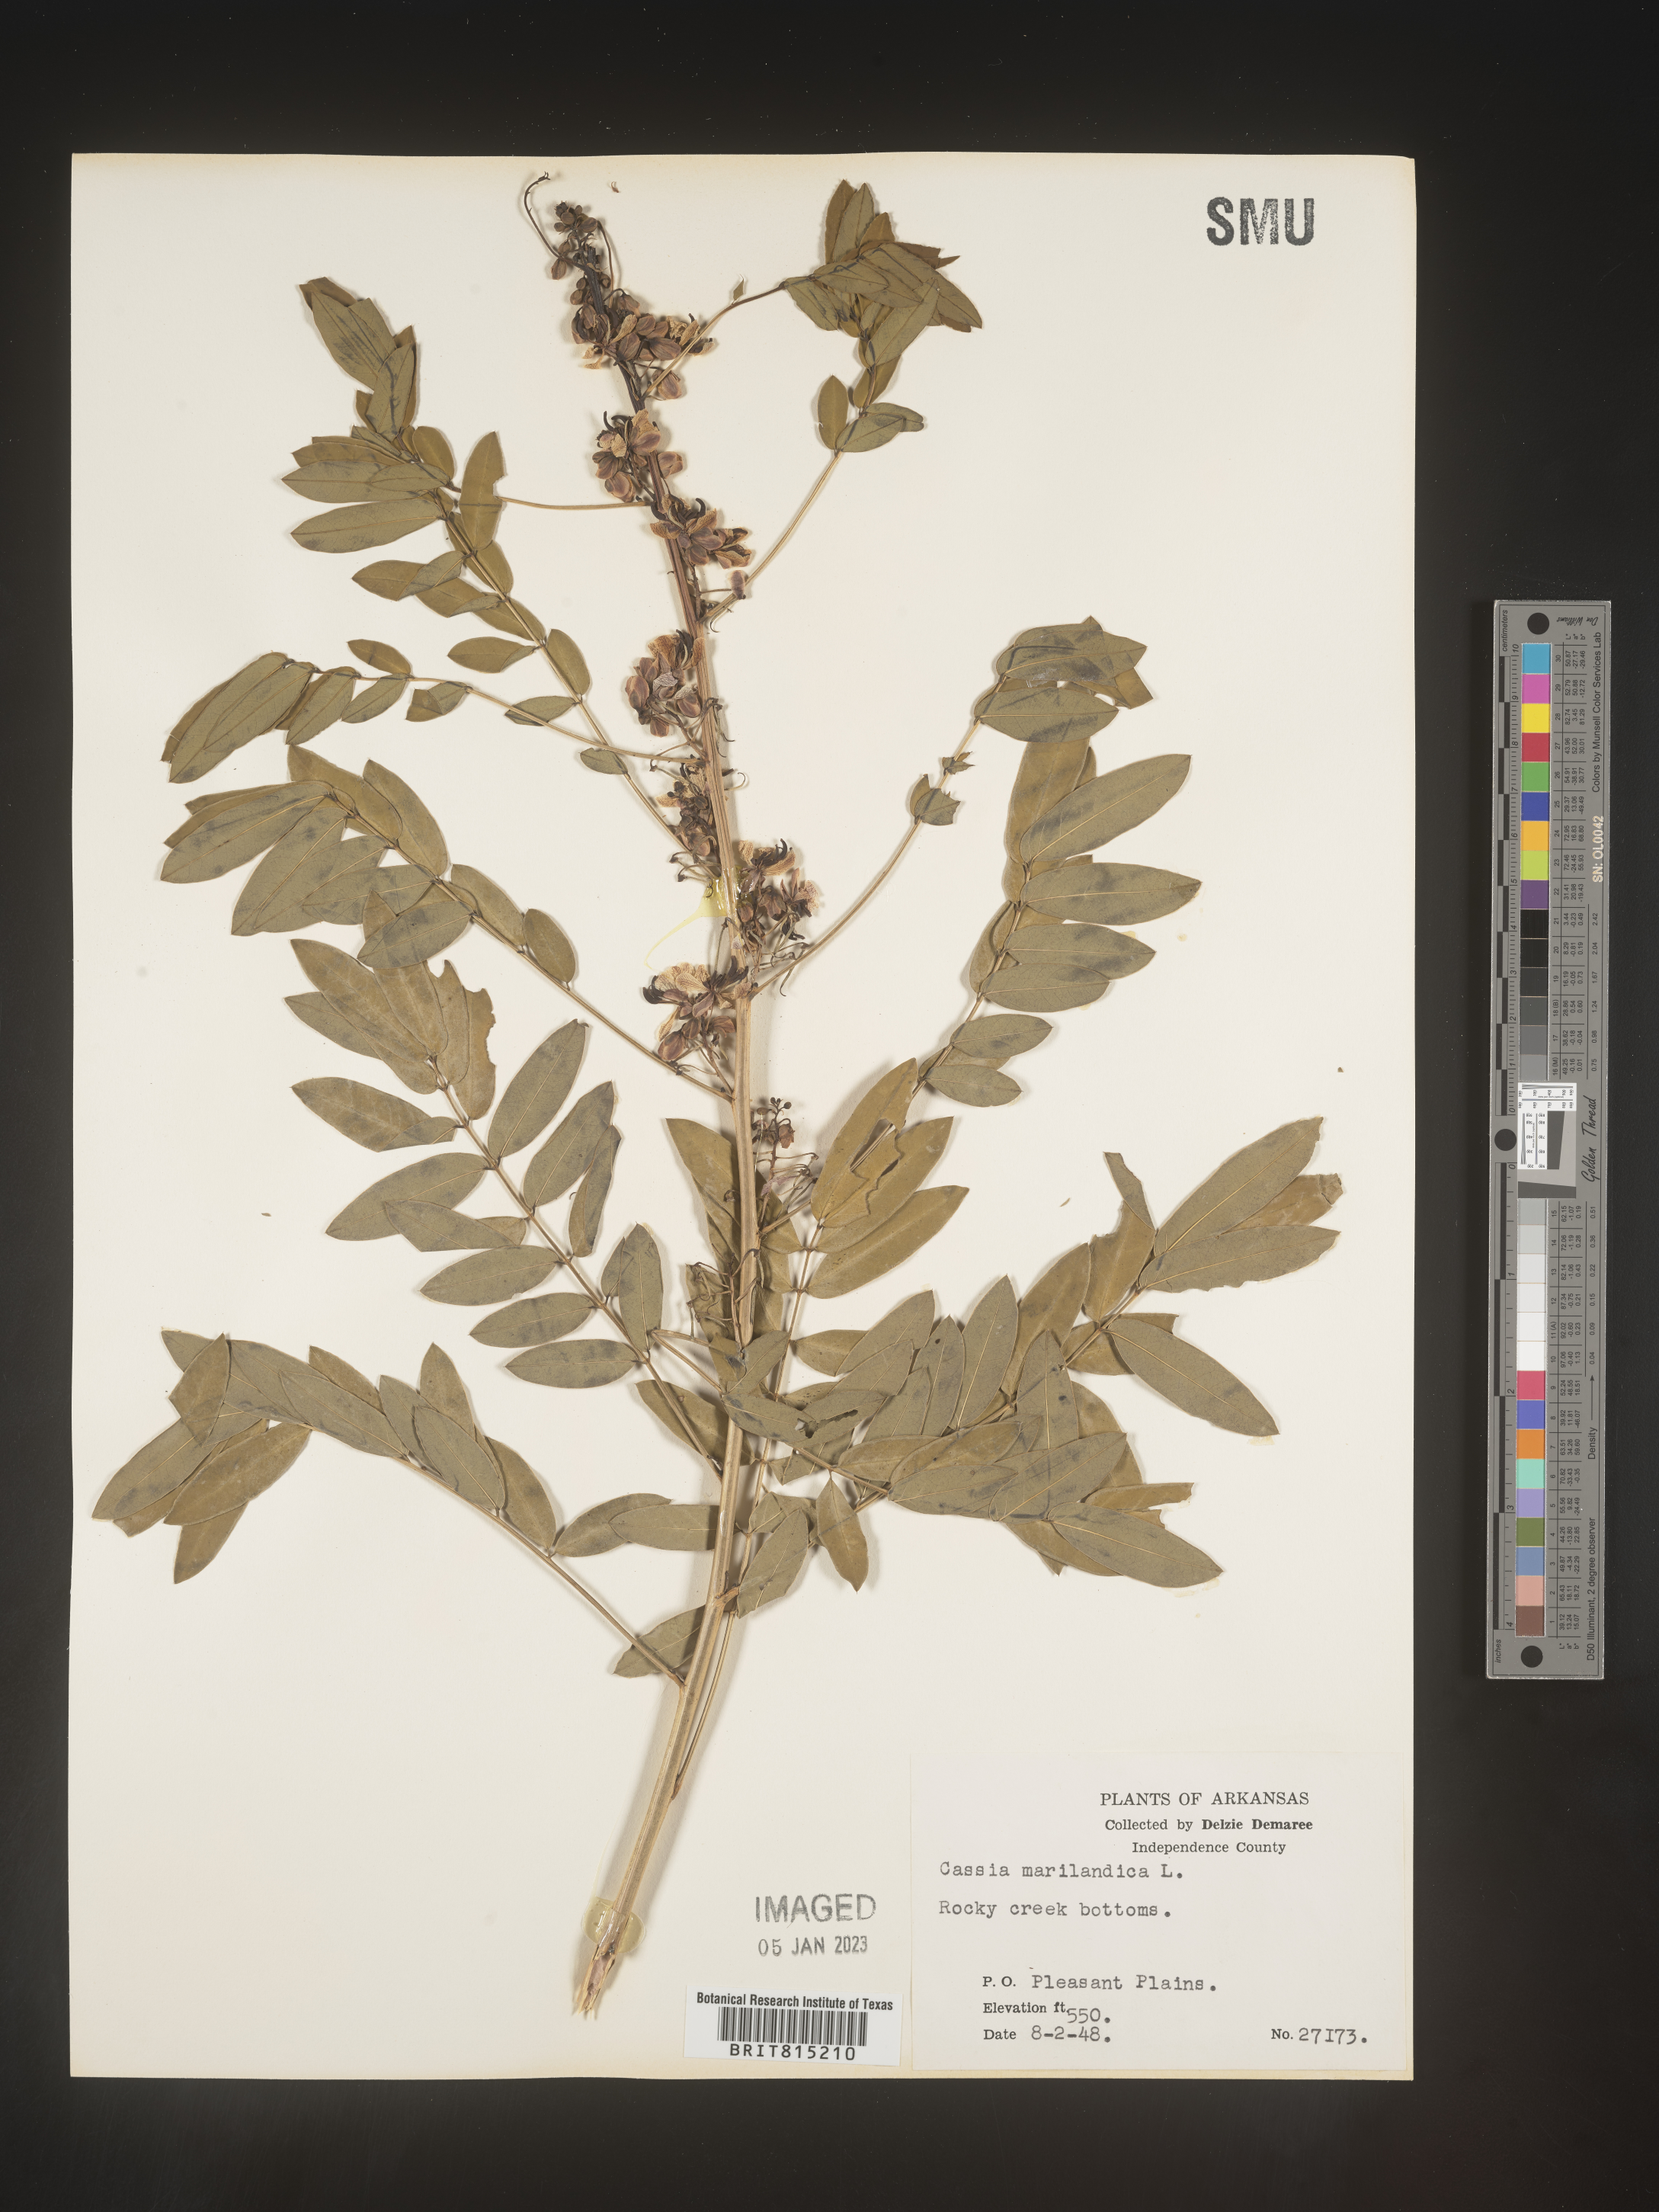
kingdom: Plantae
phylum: Tracheophyta
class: Magnoliopsida
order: Fabales
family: Fabaceae
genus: Senna
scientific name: Senna marilandica
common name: American senna
